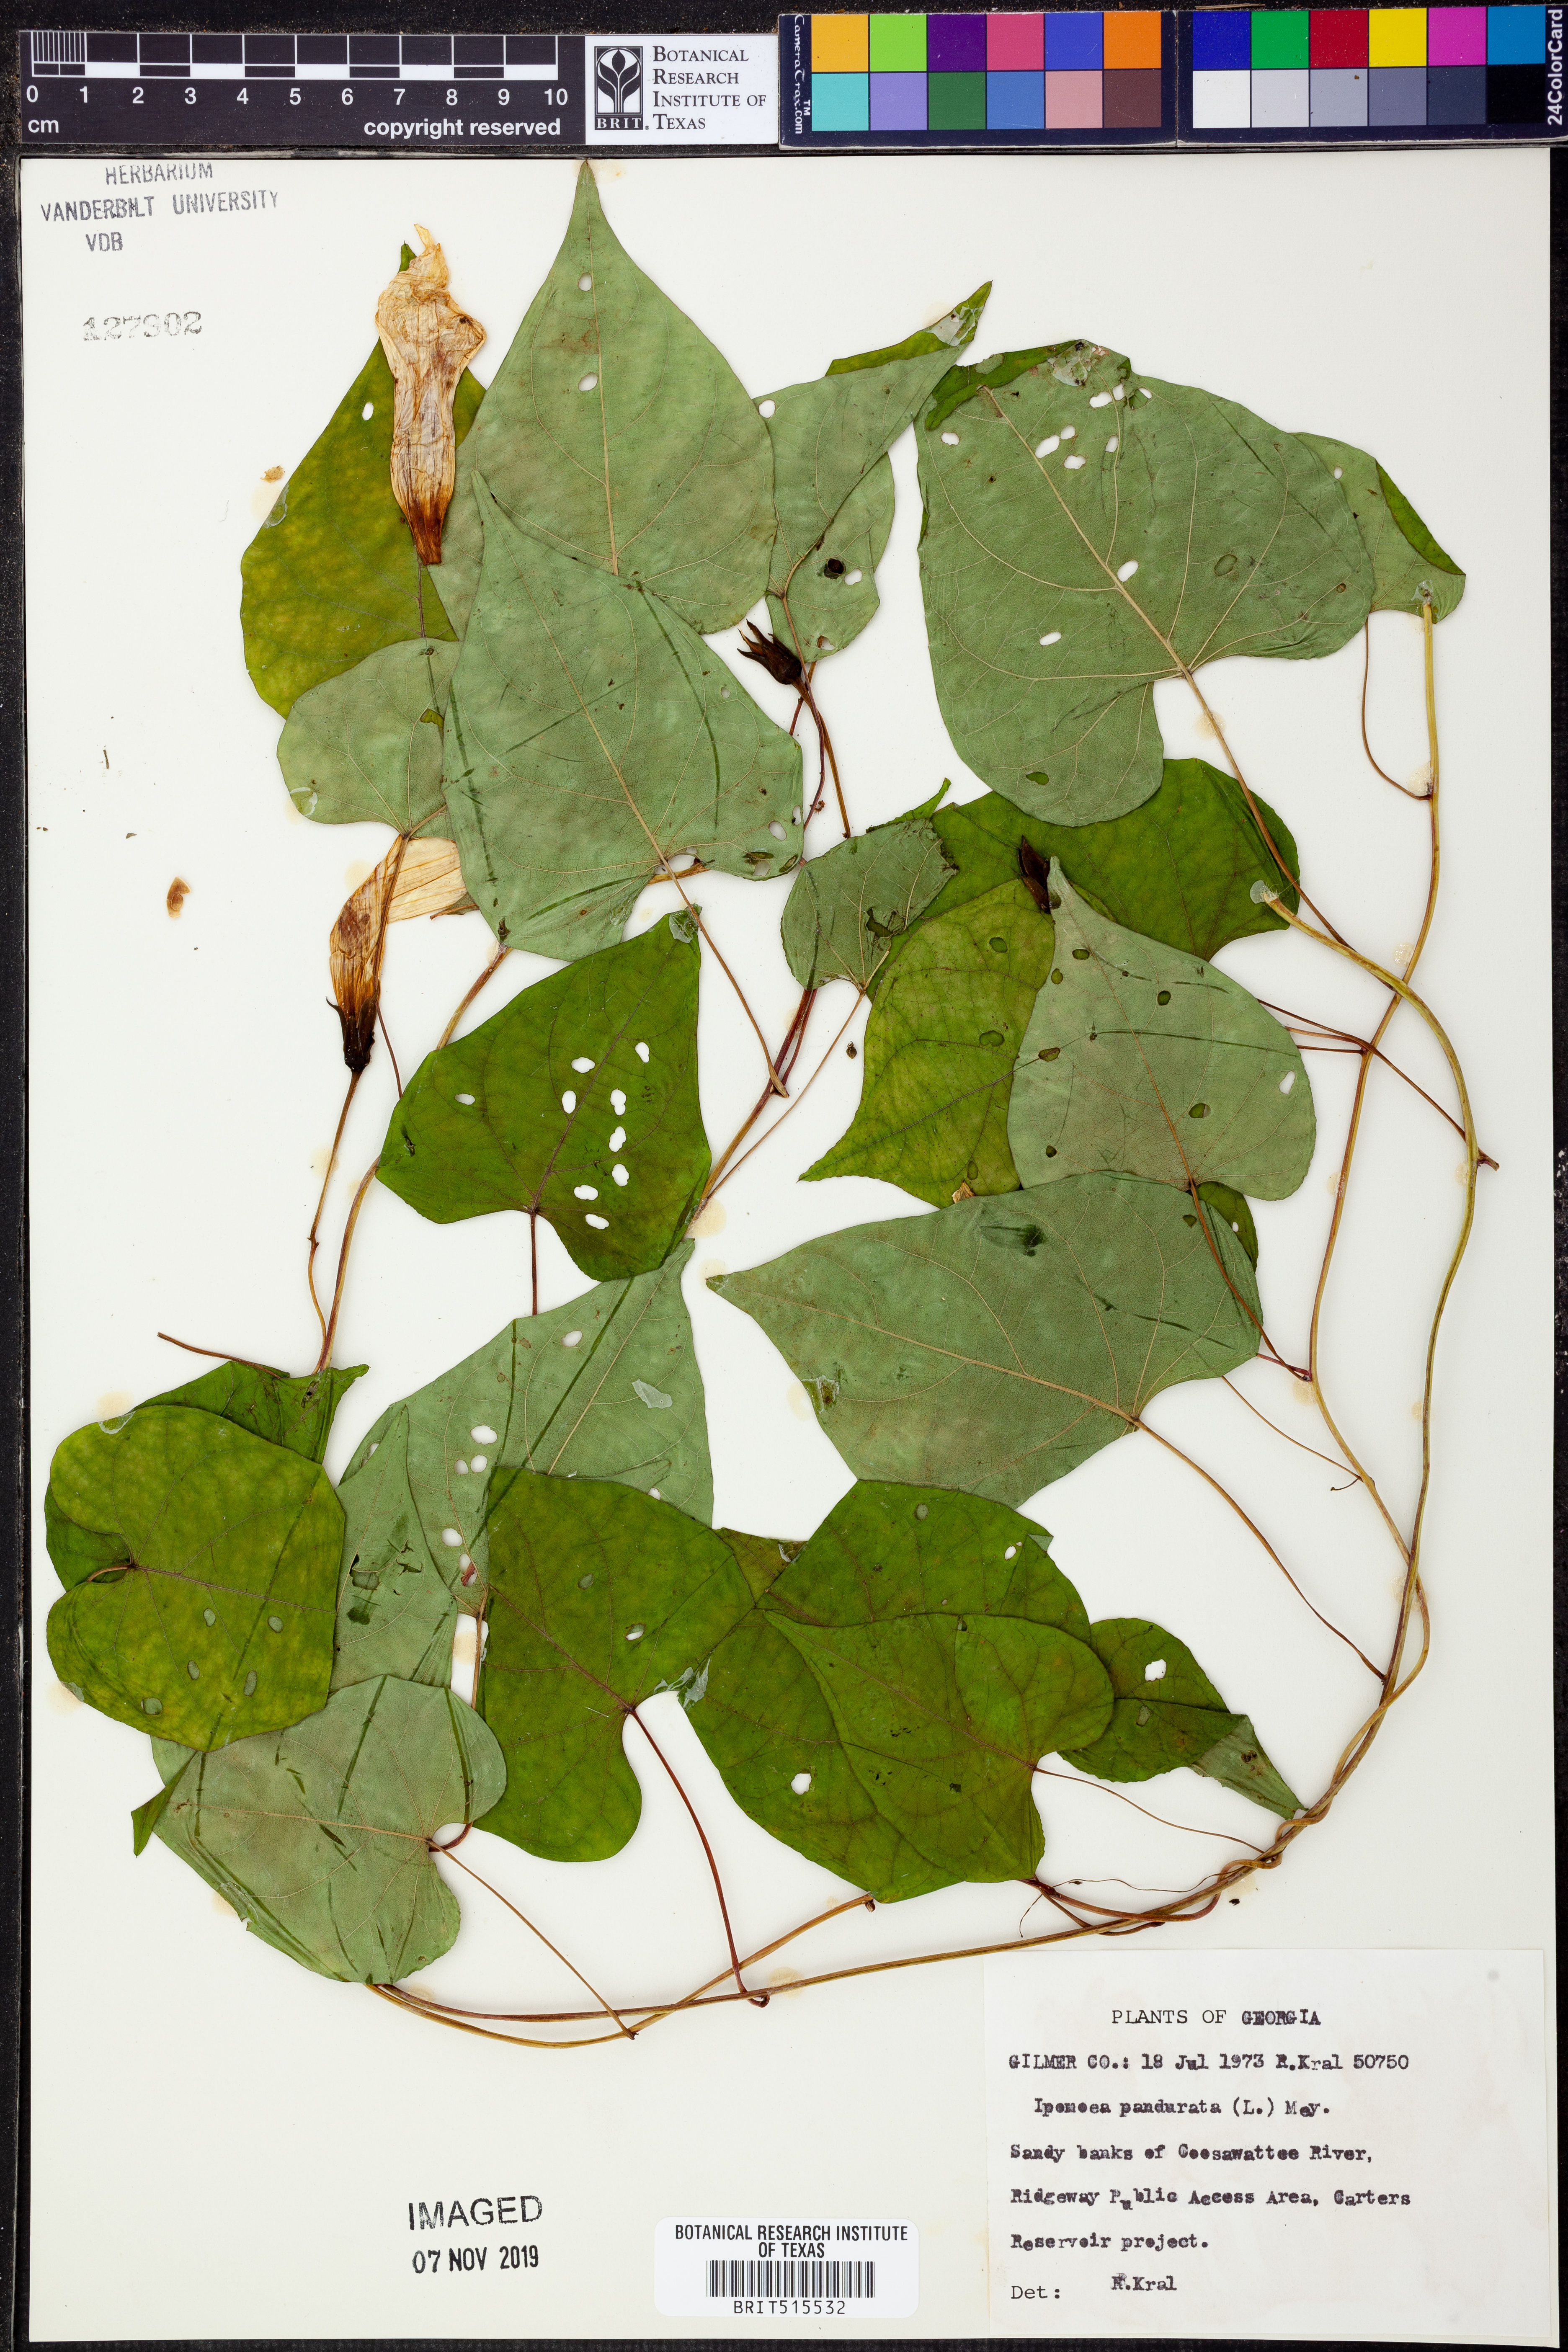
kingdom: Plantae
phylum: Tracheophyta
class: Magnoliopsida
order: Solanales
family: Convolvulaceae
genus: Ipomoea
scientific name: Ipomoea pandurata
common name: Man-of-the-earth
